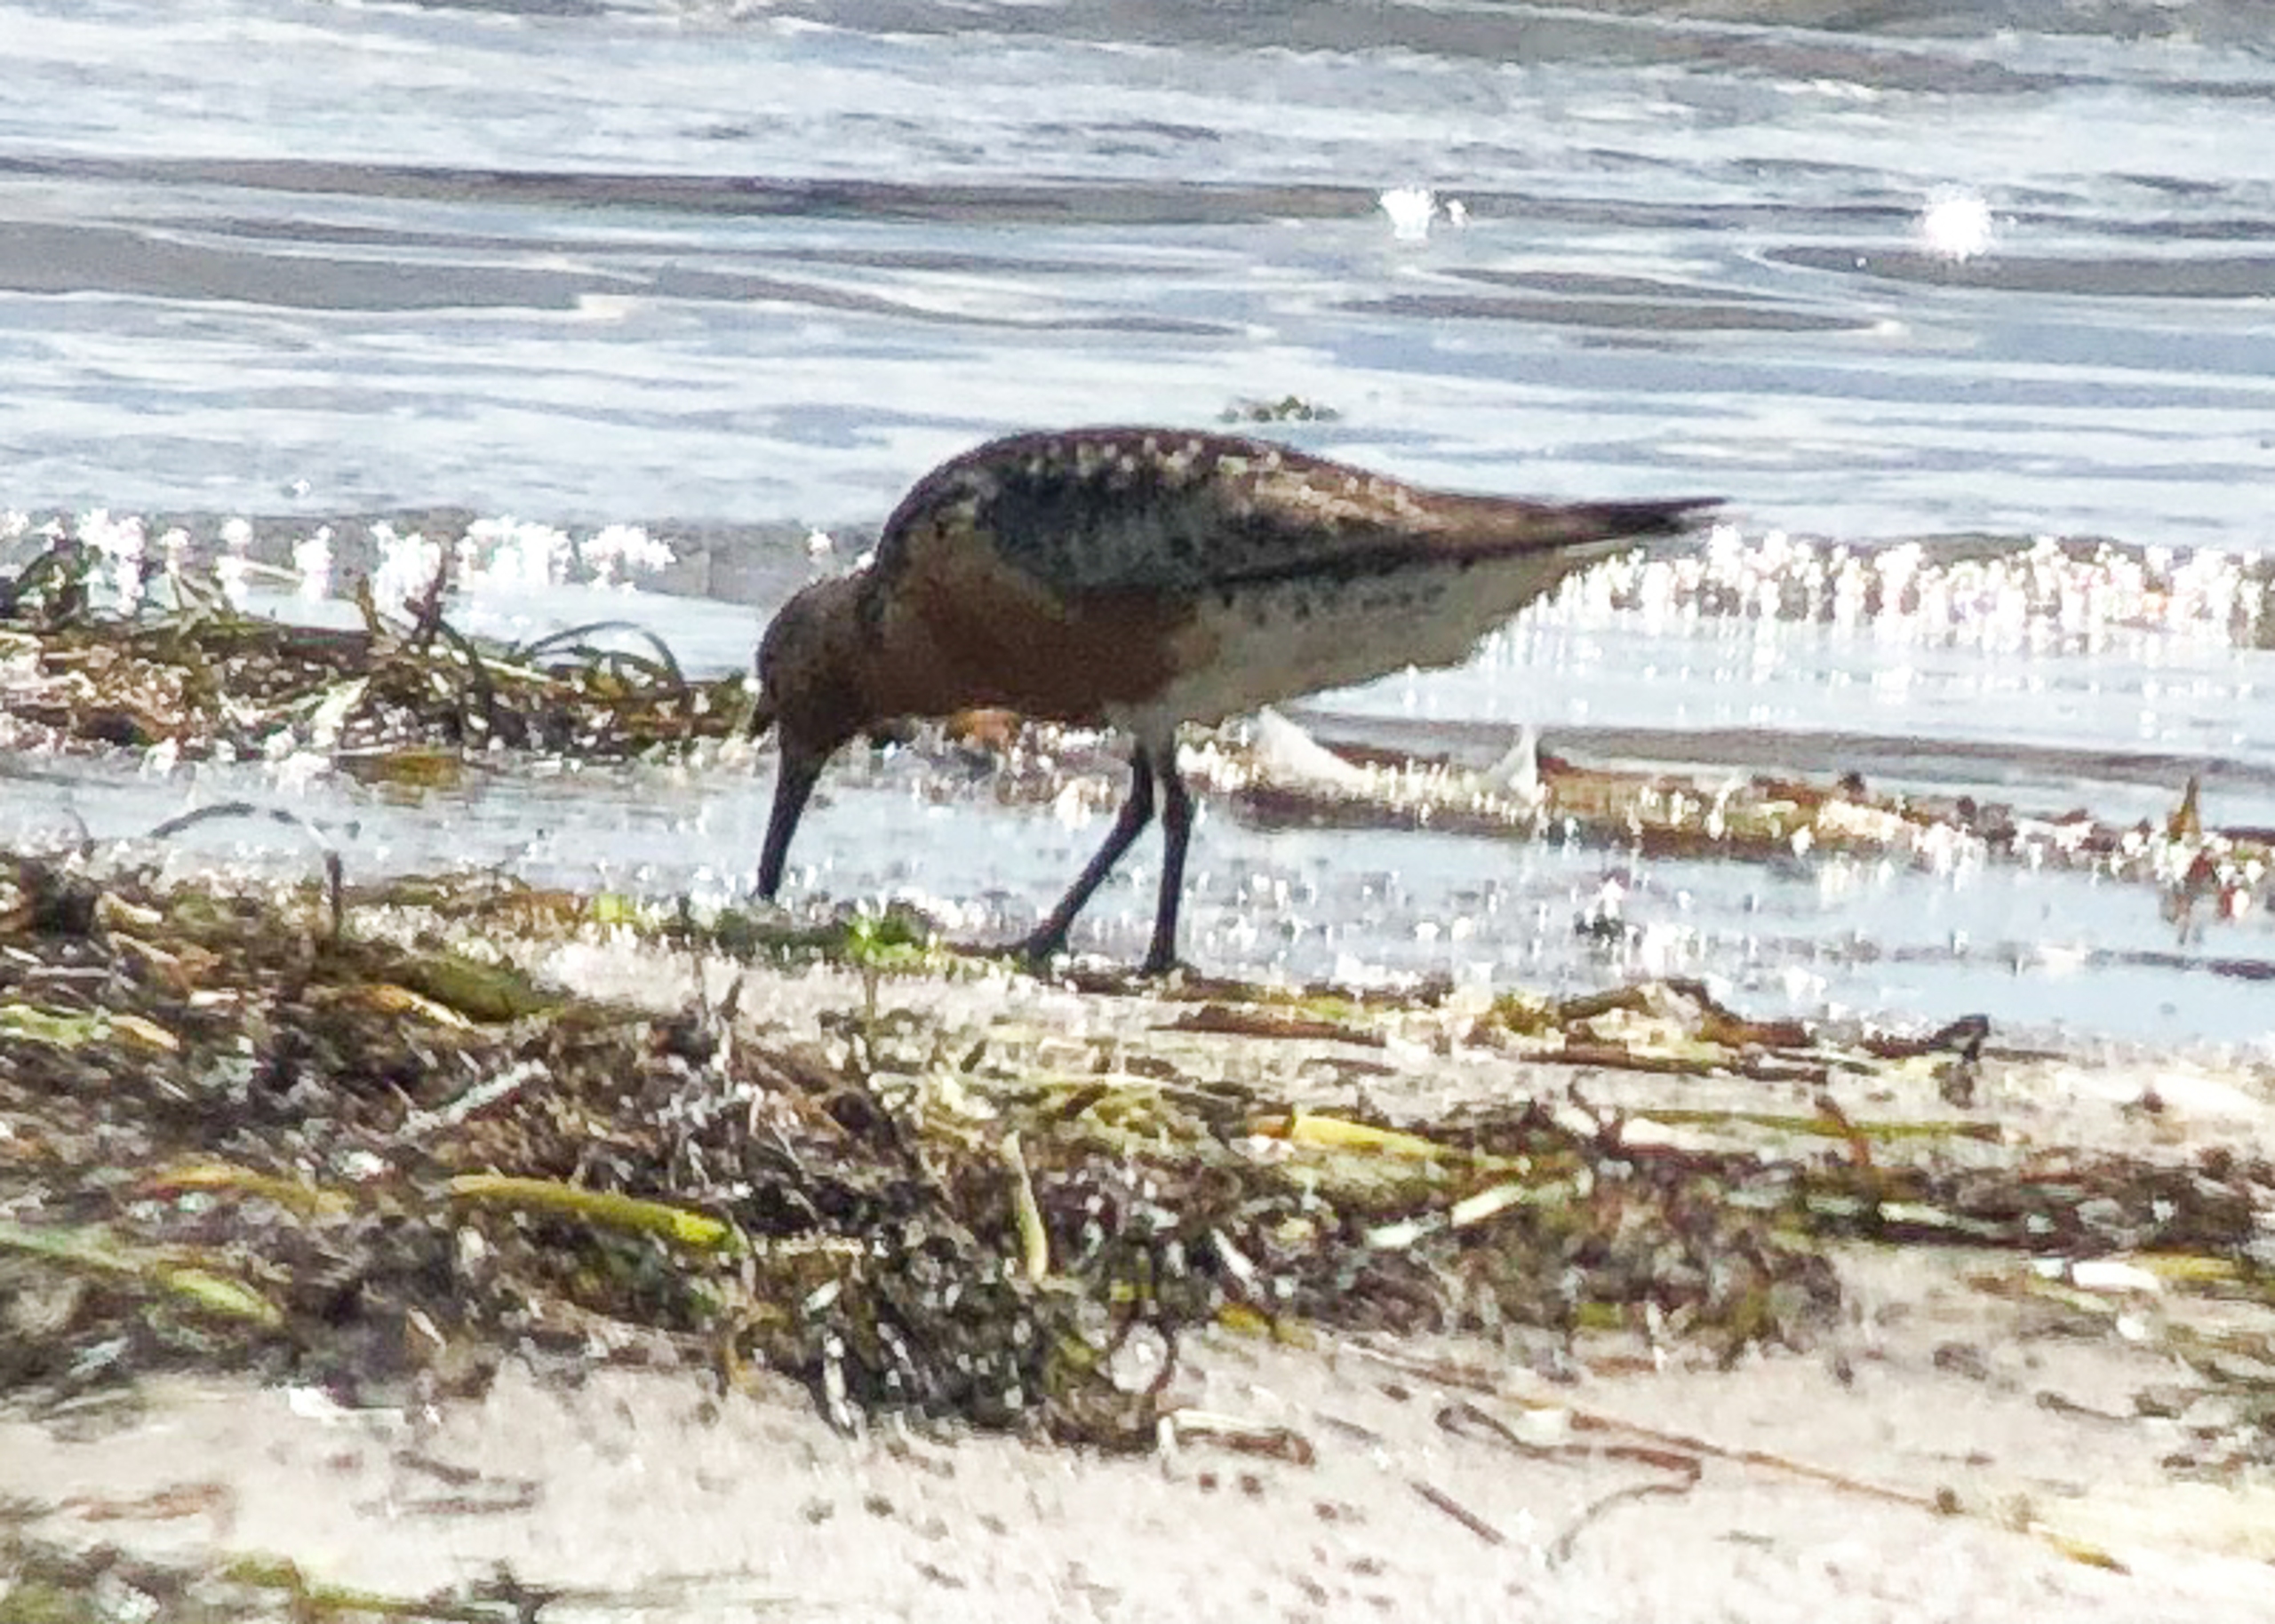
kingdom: Animalia
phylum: Chordata
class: Aves
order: Charadriiformes
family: Scolopacidae
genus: Calidris
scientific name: Calidris canutus
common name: Islandsk ryle
